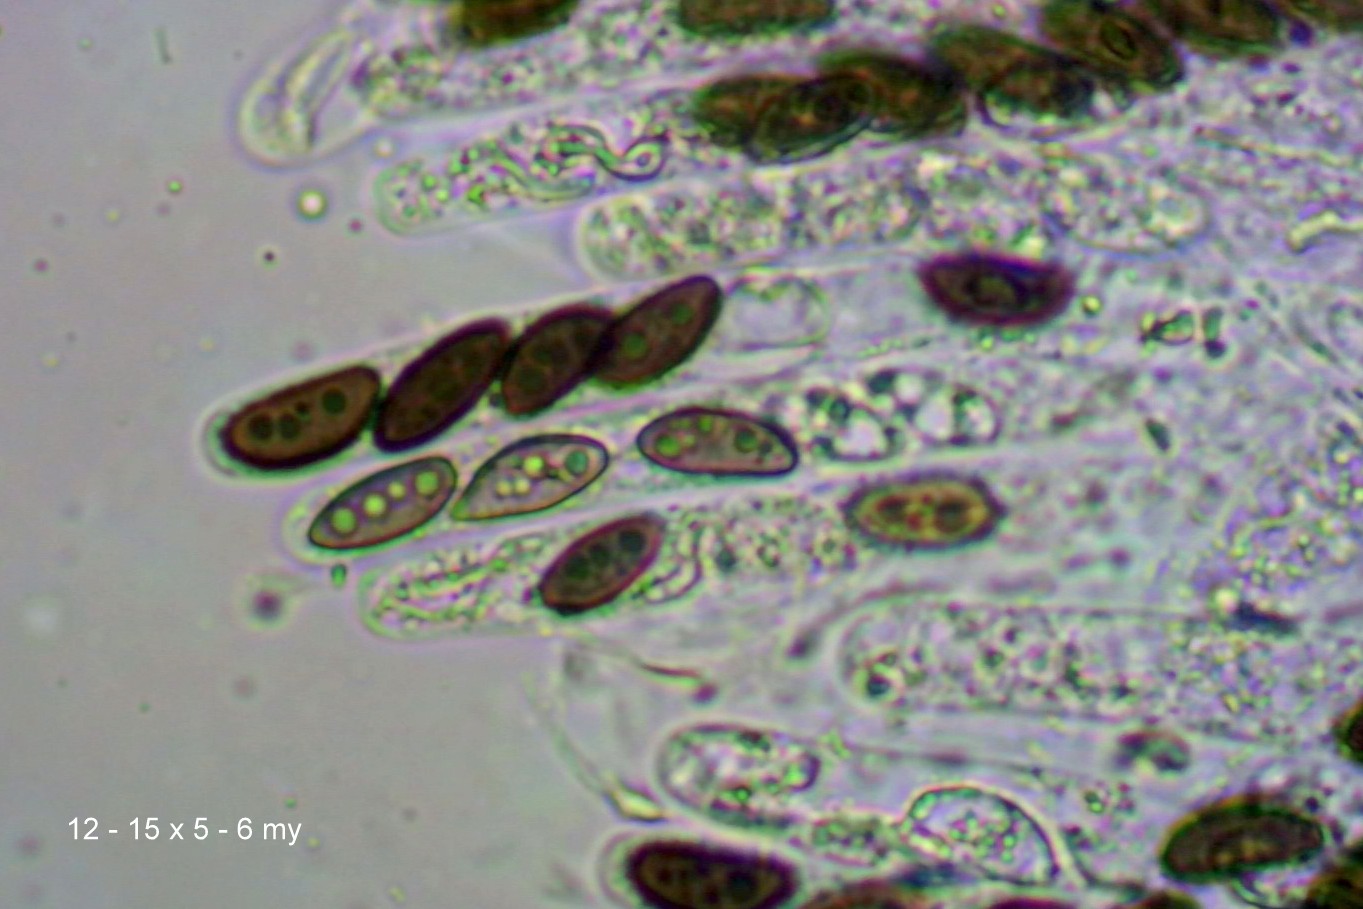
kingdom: Fungi
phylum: Ascomycota
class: Sordariomycetes
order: Xylariales
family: Hypoxylaceae
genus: Hypoxylon
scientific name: Hypoxylon fuscum
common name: kegleformet kulbær
